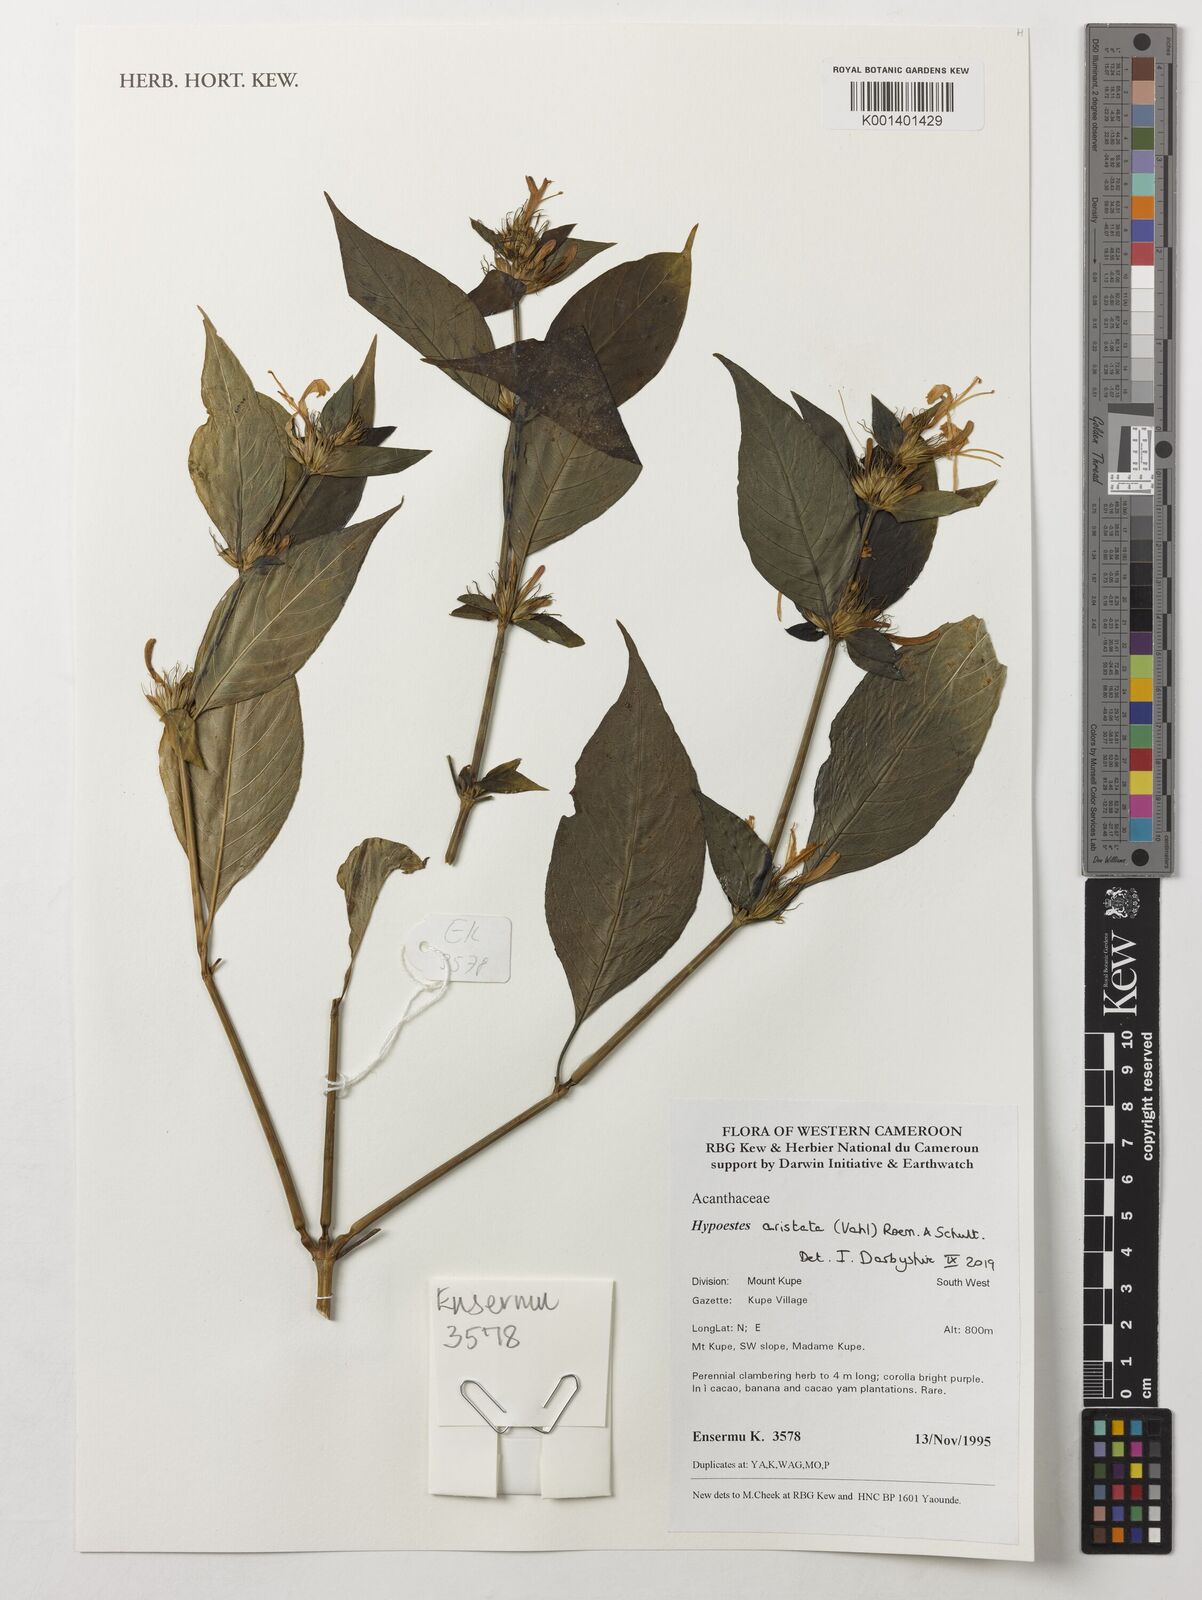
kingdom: Plantae
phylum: Tracheophyta
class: Magnoliopsida
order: Lamiales
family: Acanthaceae
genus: Hypoestes
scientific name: Hypoestes aristata
